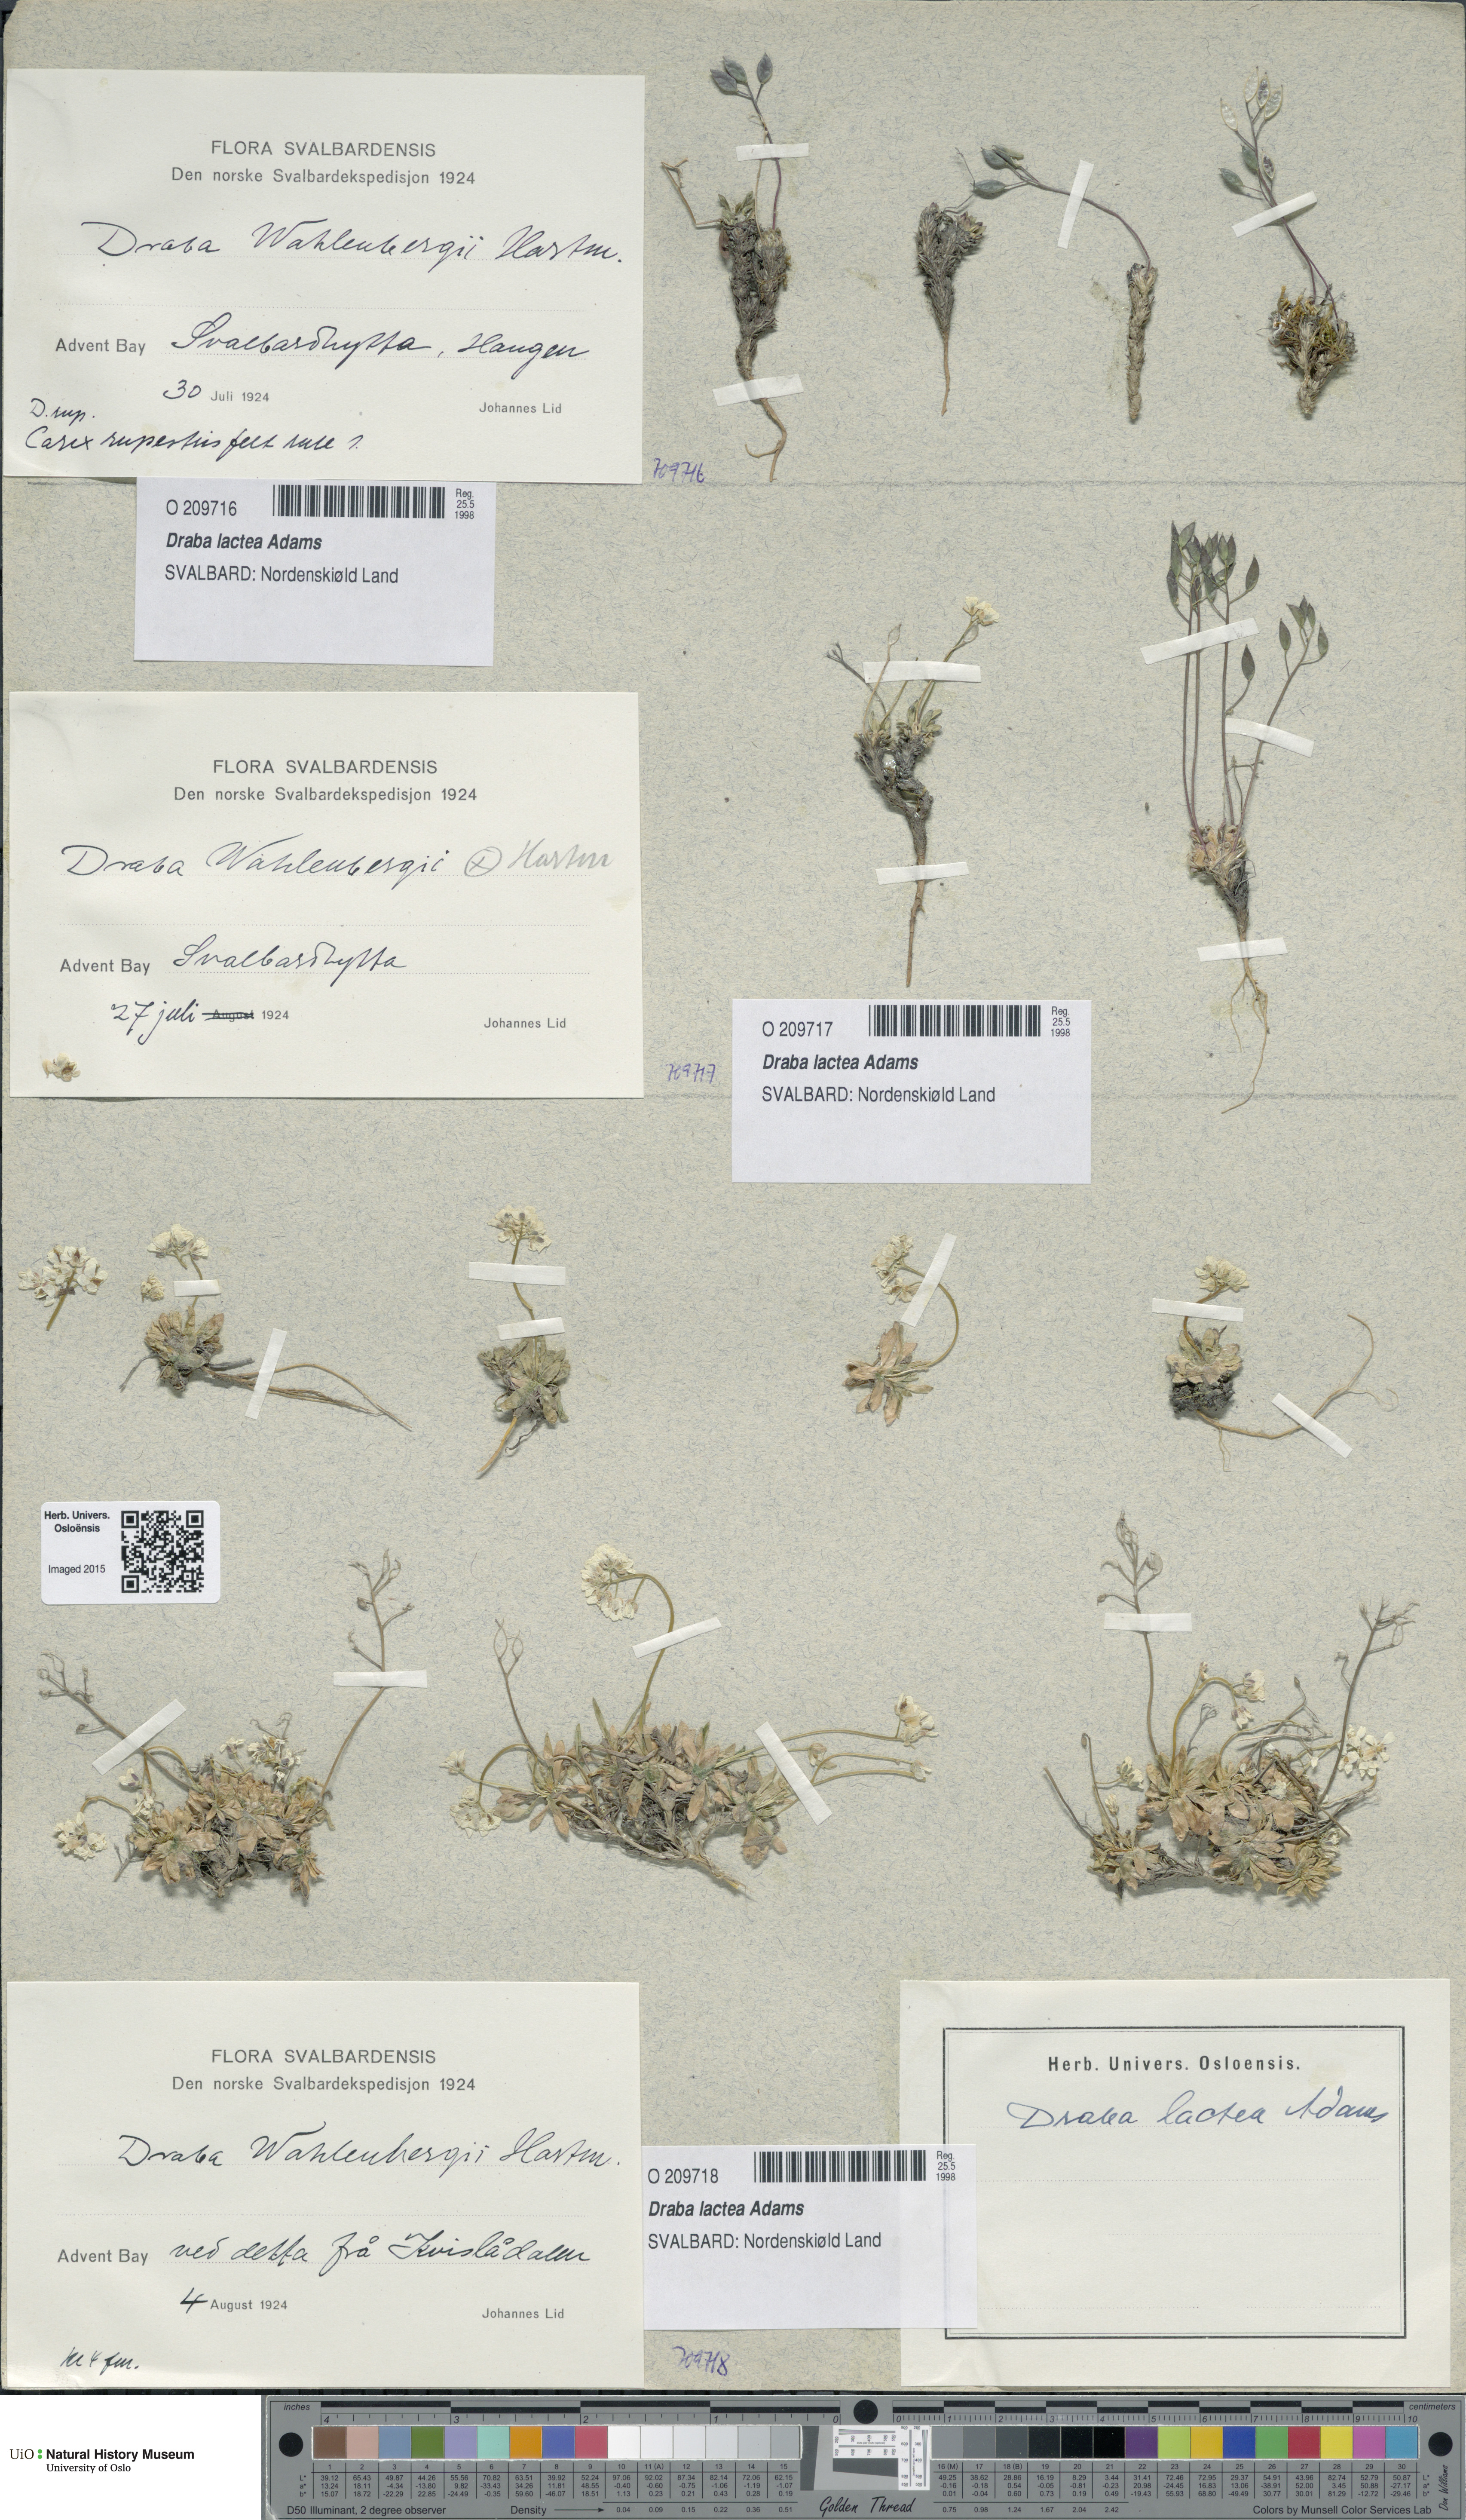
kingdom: Plantae
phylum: Tracheophyta
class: Magnoliopsida
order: Brassicales
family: Brassicaceae
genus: Draba
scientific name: Draba lactea
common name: Milky draba
